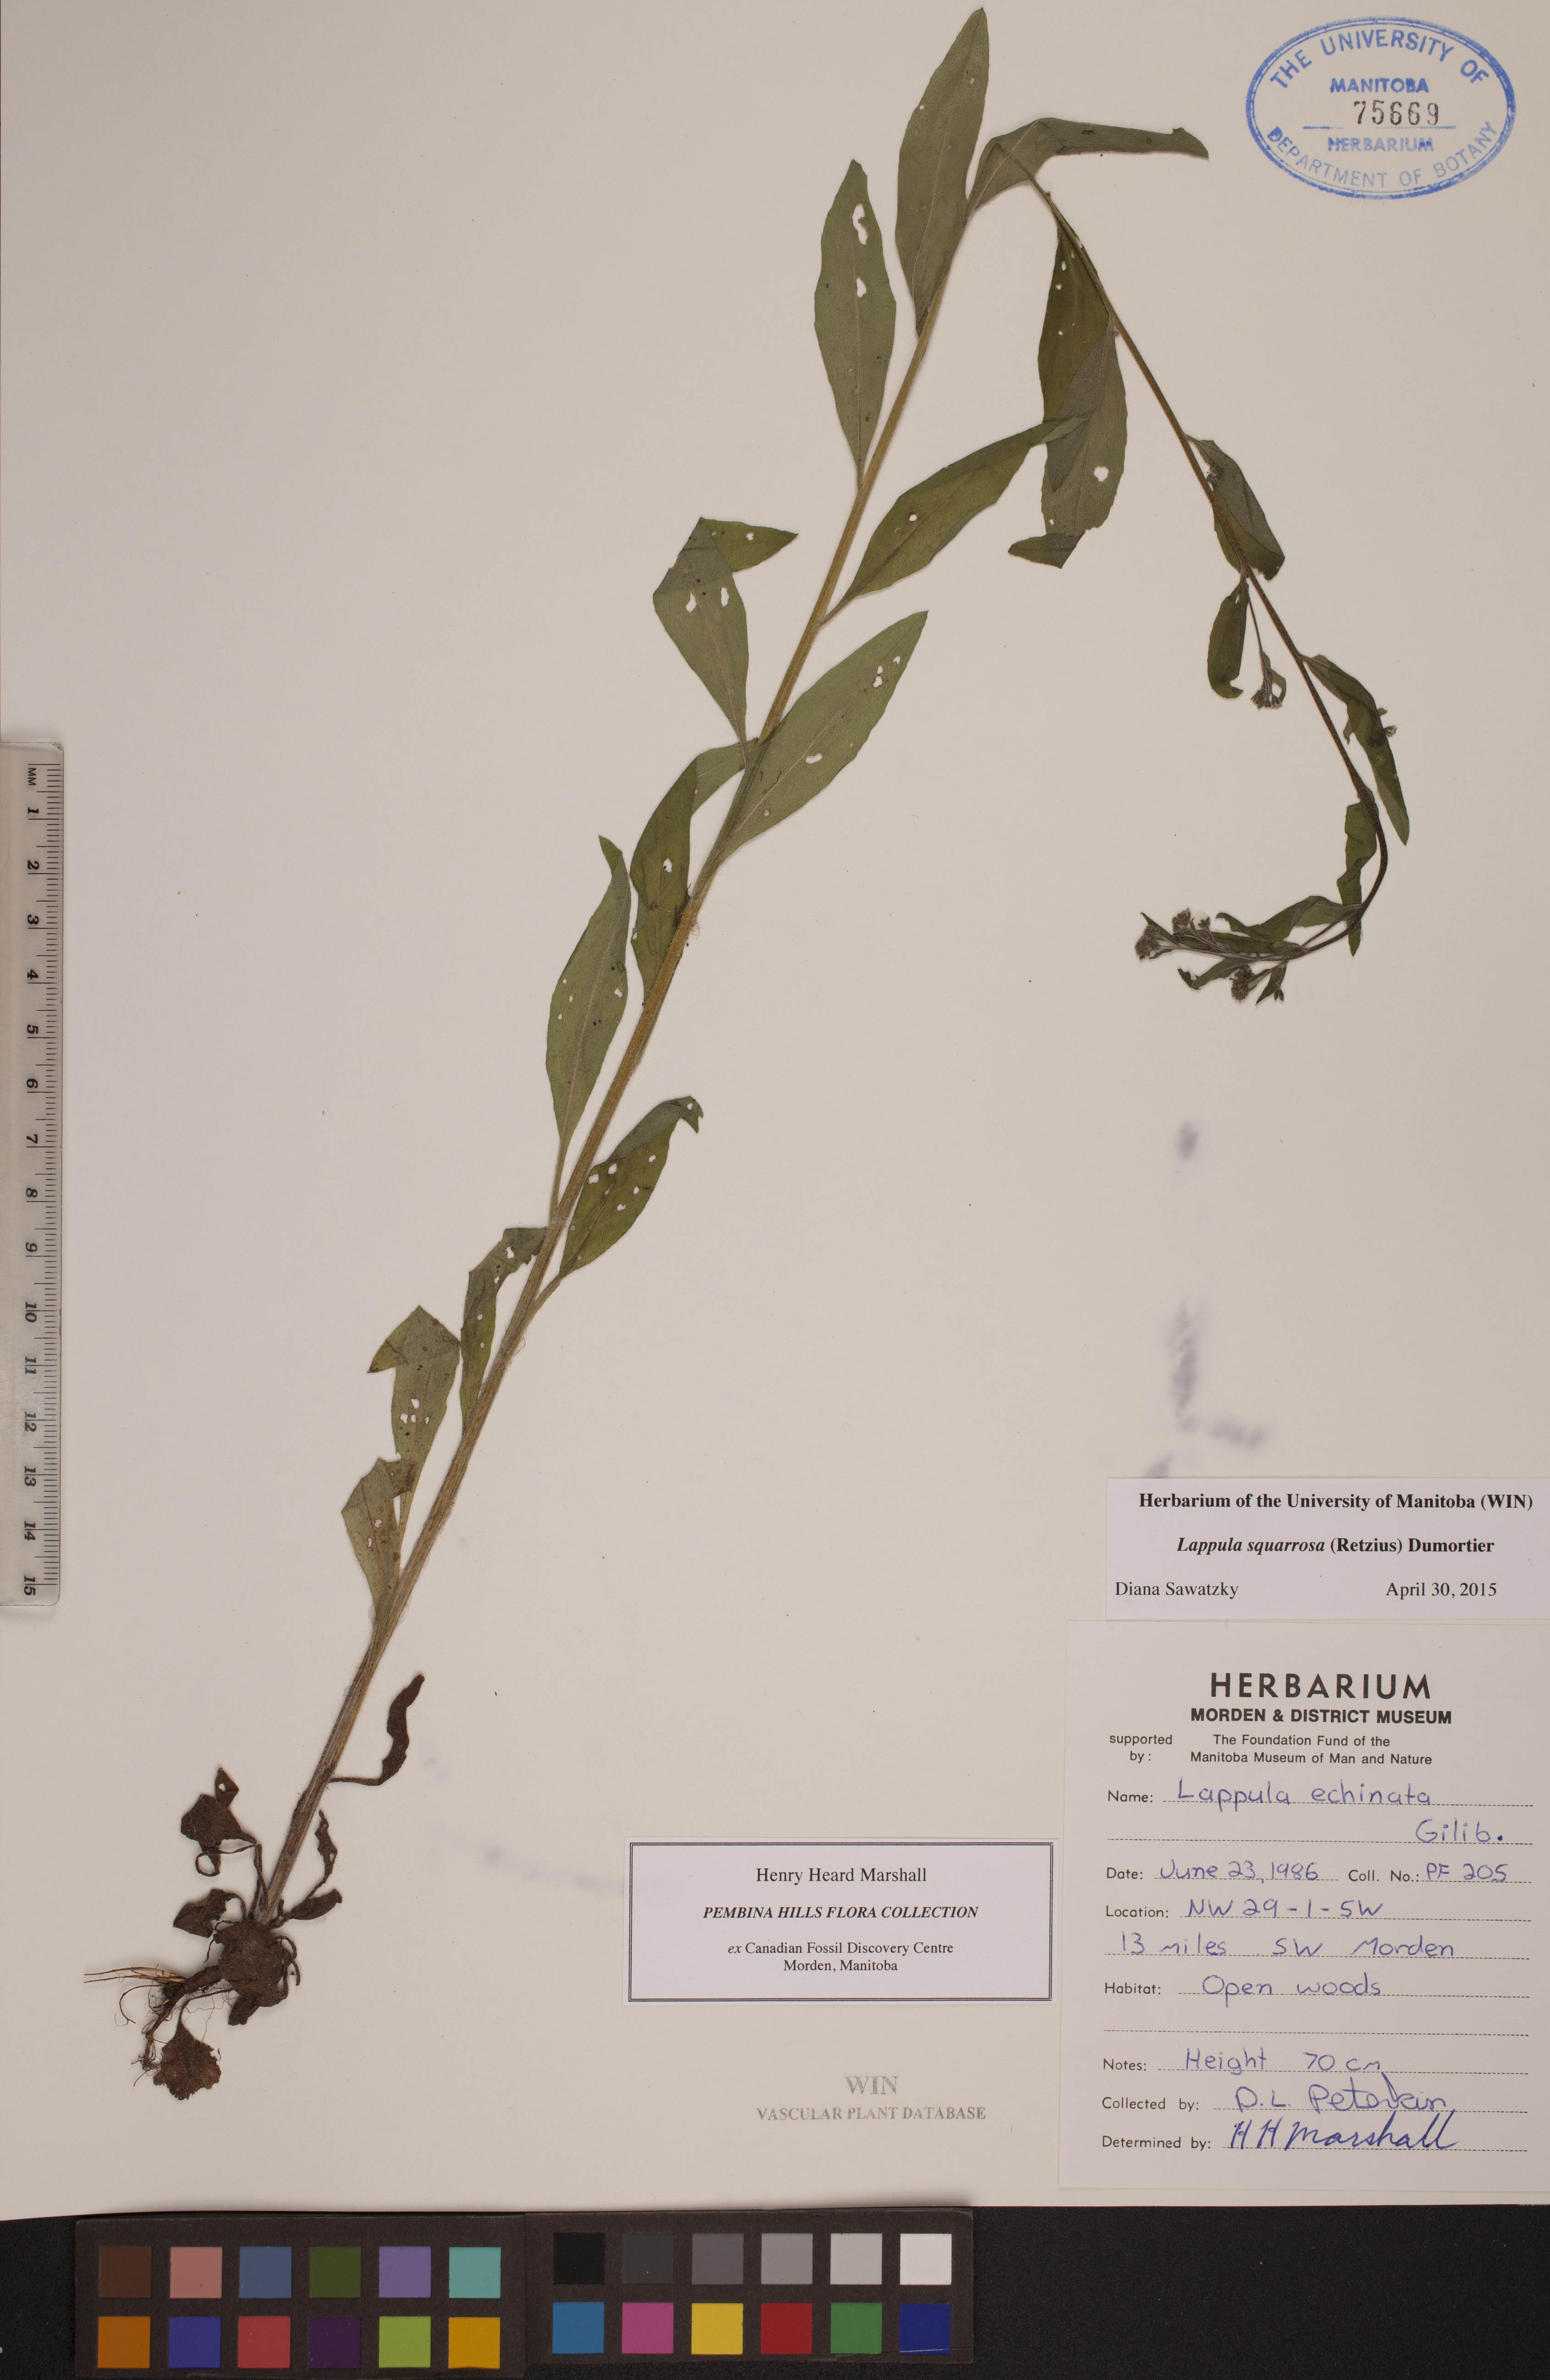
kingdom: Plantae
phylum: Tracheophyta
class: Magnoliopsida
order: Boraginales
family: Boraginaceae
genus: Lappula
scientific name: Lappula squarrosa
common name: European stickseed
